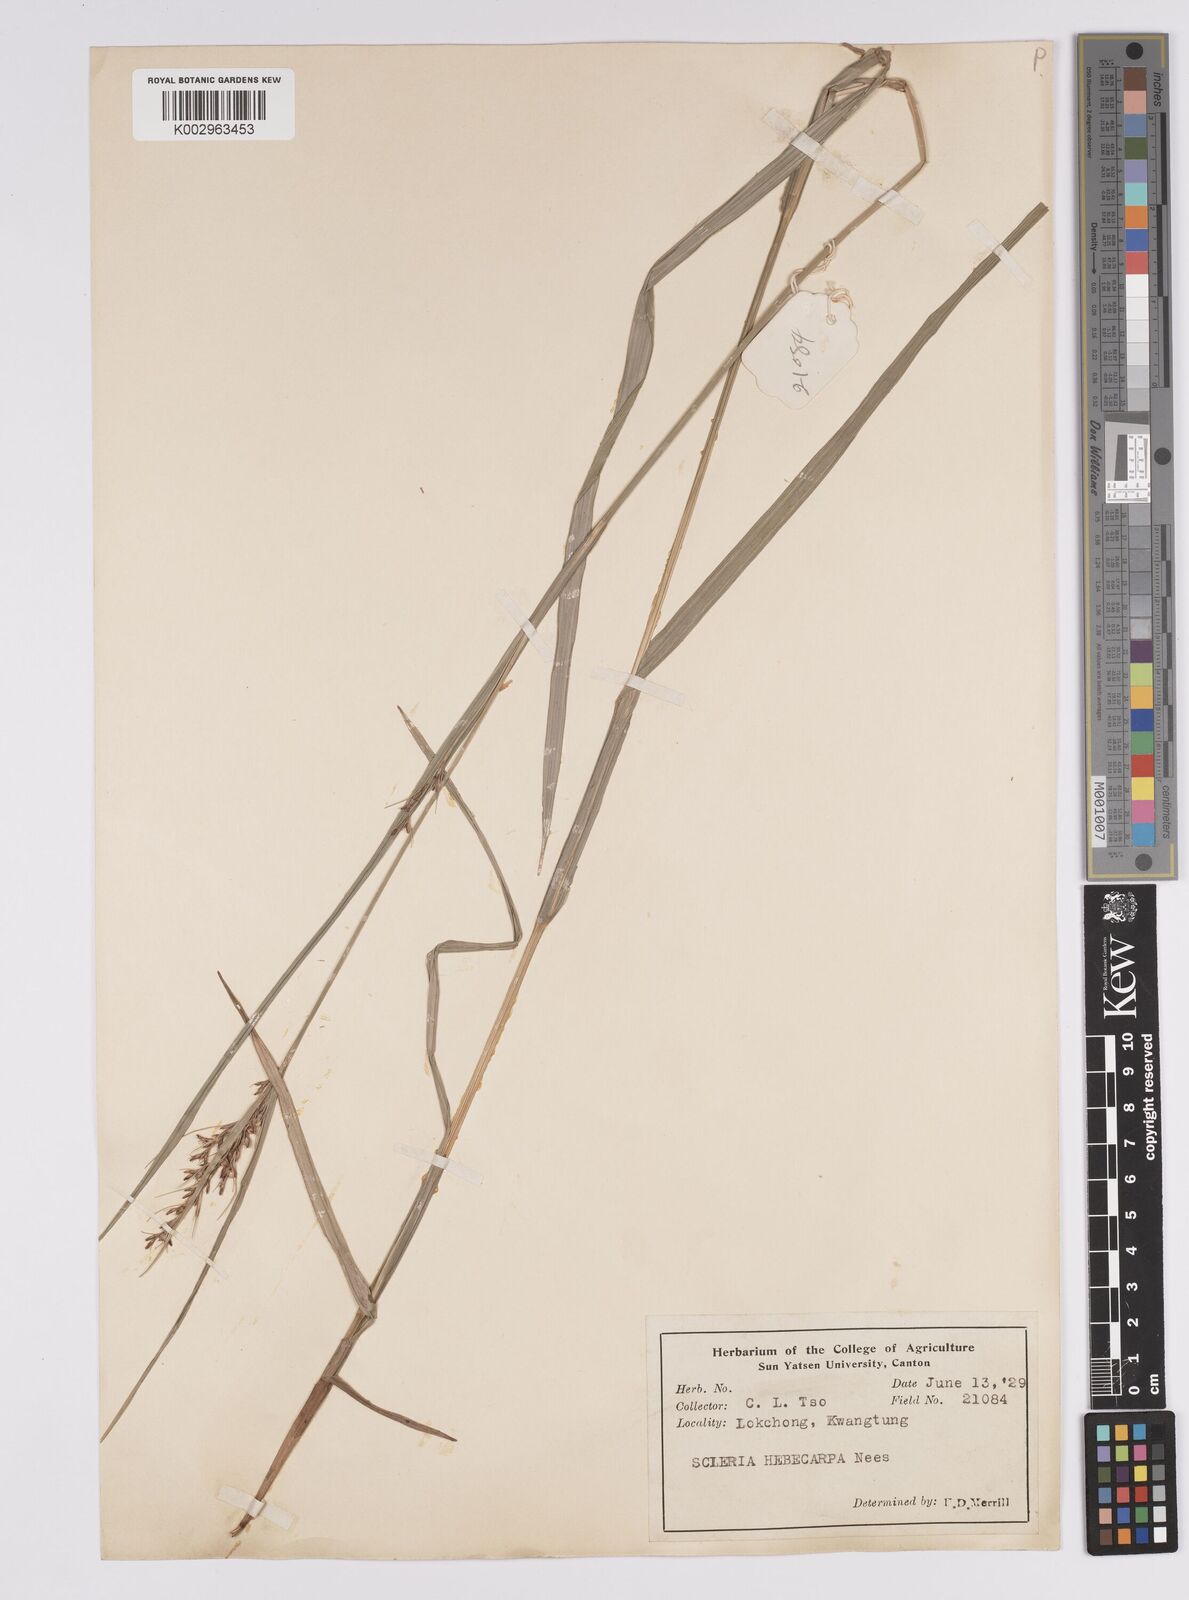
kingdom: Plantae
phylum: Tracheophyta
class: Liliopsida
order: Poales
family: Cyperaceae
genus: Scleria
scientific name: Scleria levis
